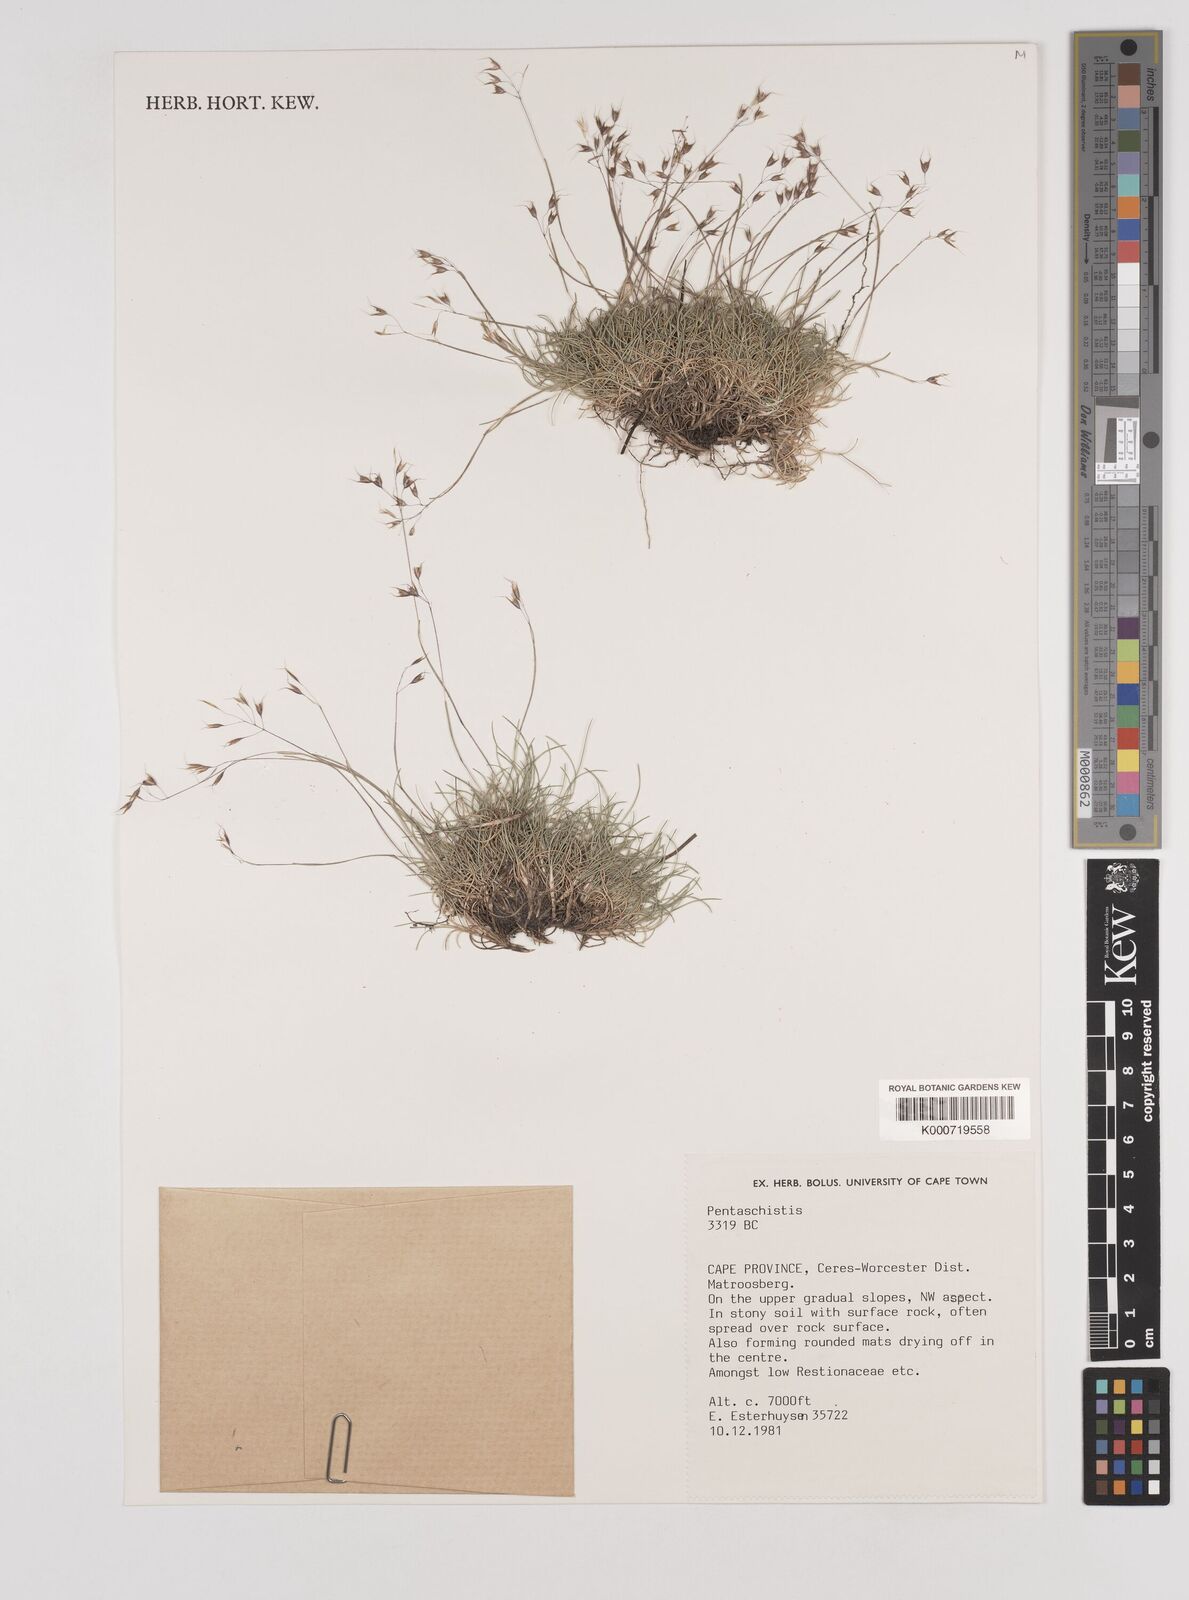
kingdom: Plantae
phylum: Tracheophyta
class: Liliopsida
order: Poales
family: Poaceae
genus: Pentameris
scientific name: Pentameris alticola
